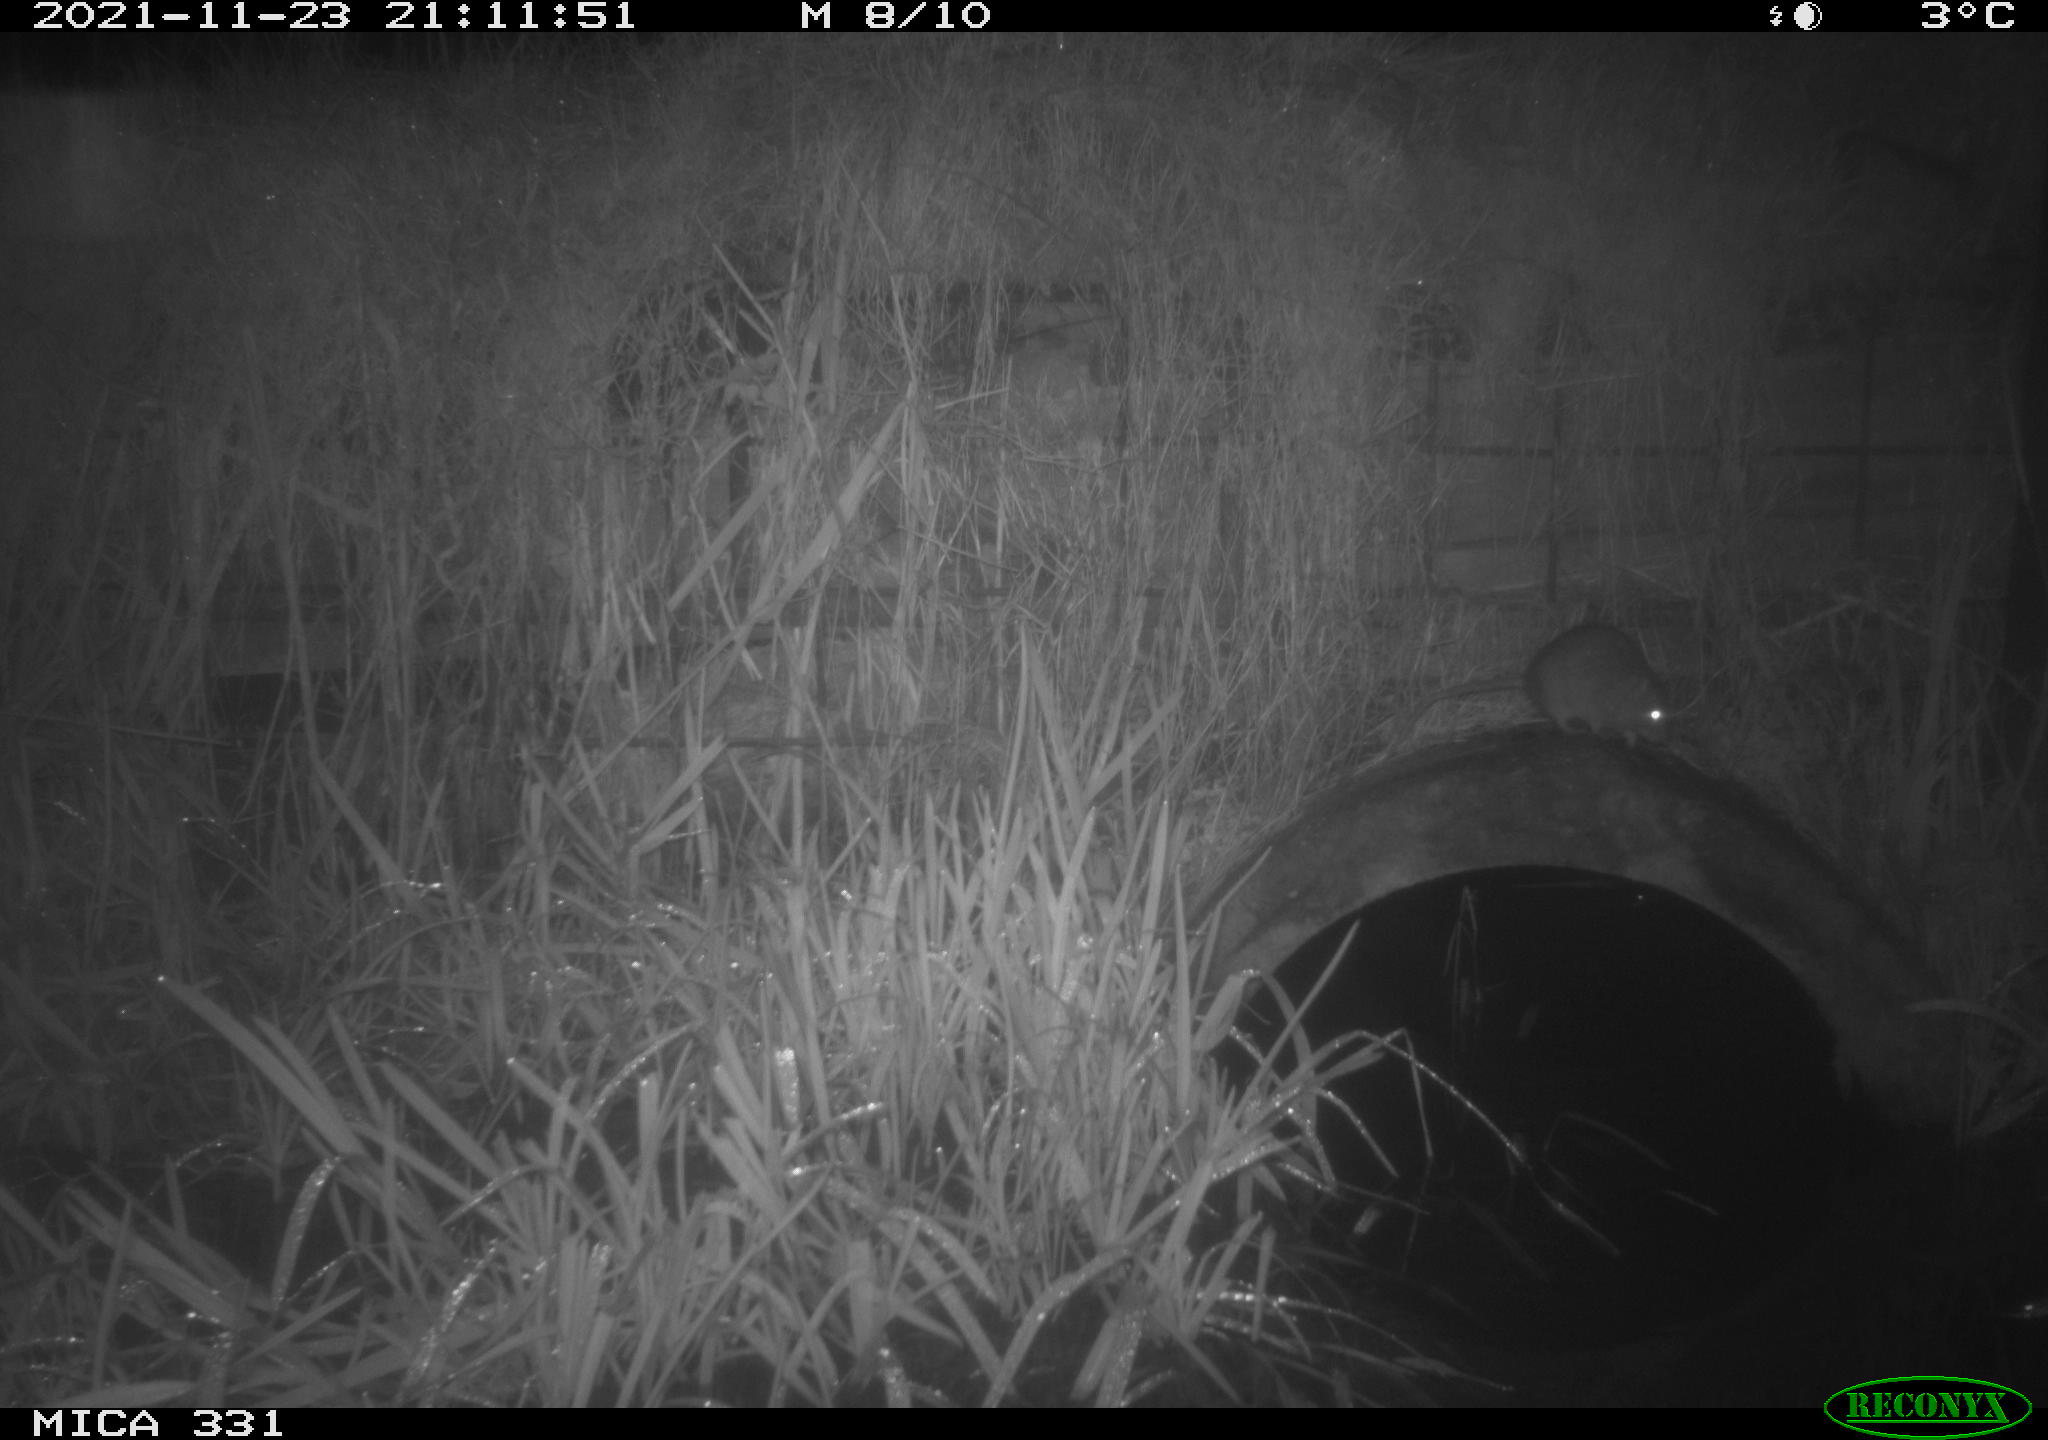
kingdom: Animalia
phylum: Chordata
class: Mammalia
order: Rodentia
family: Muridae
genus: Rattus
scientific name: Rattus norvegicus
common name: Brown rat
